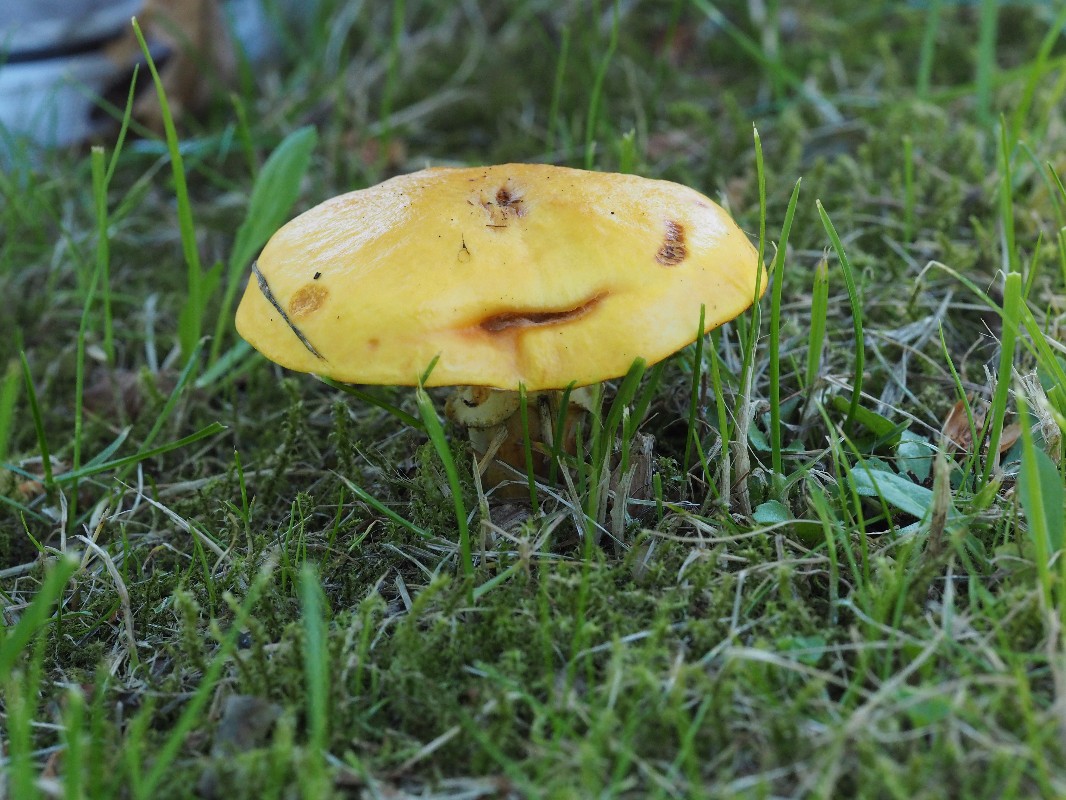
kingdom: Fungi
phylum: Basidiomycota
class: Agaricomycetes
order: Boletales
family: Suillaceae
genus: Suillus
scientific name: Suillus grevillei
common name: lærke-slimrørhat
